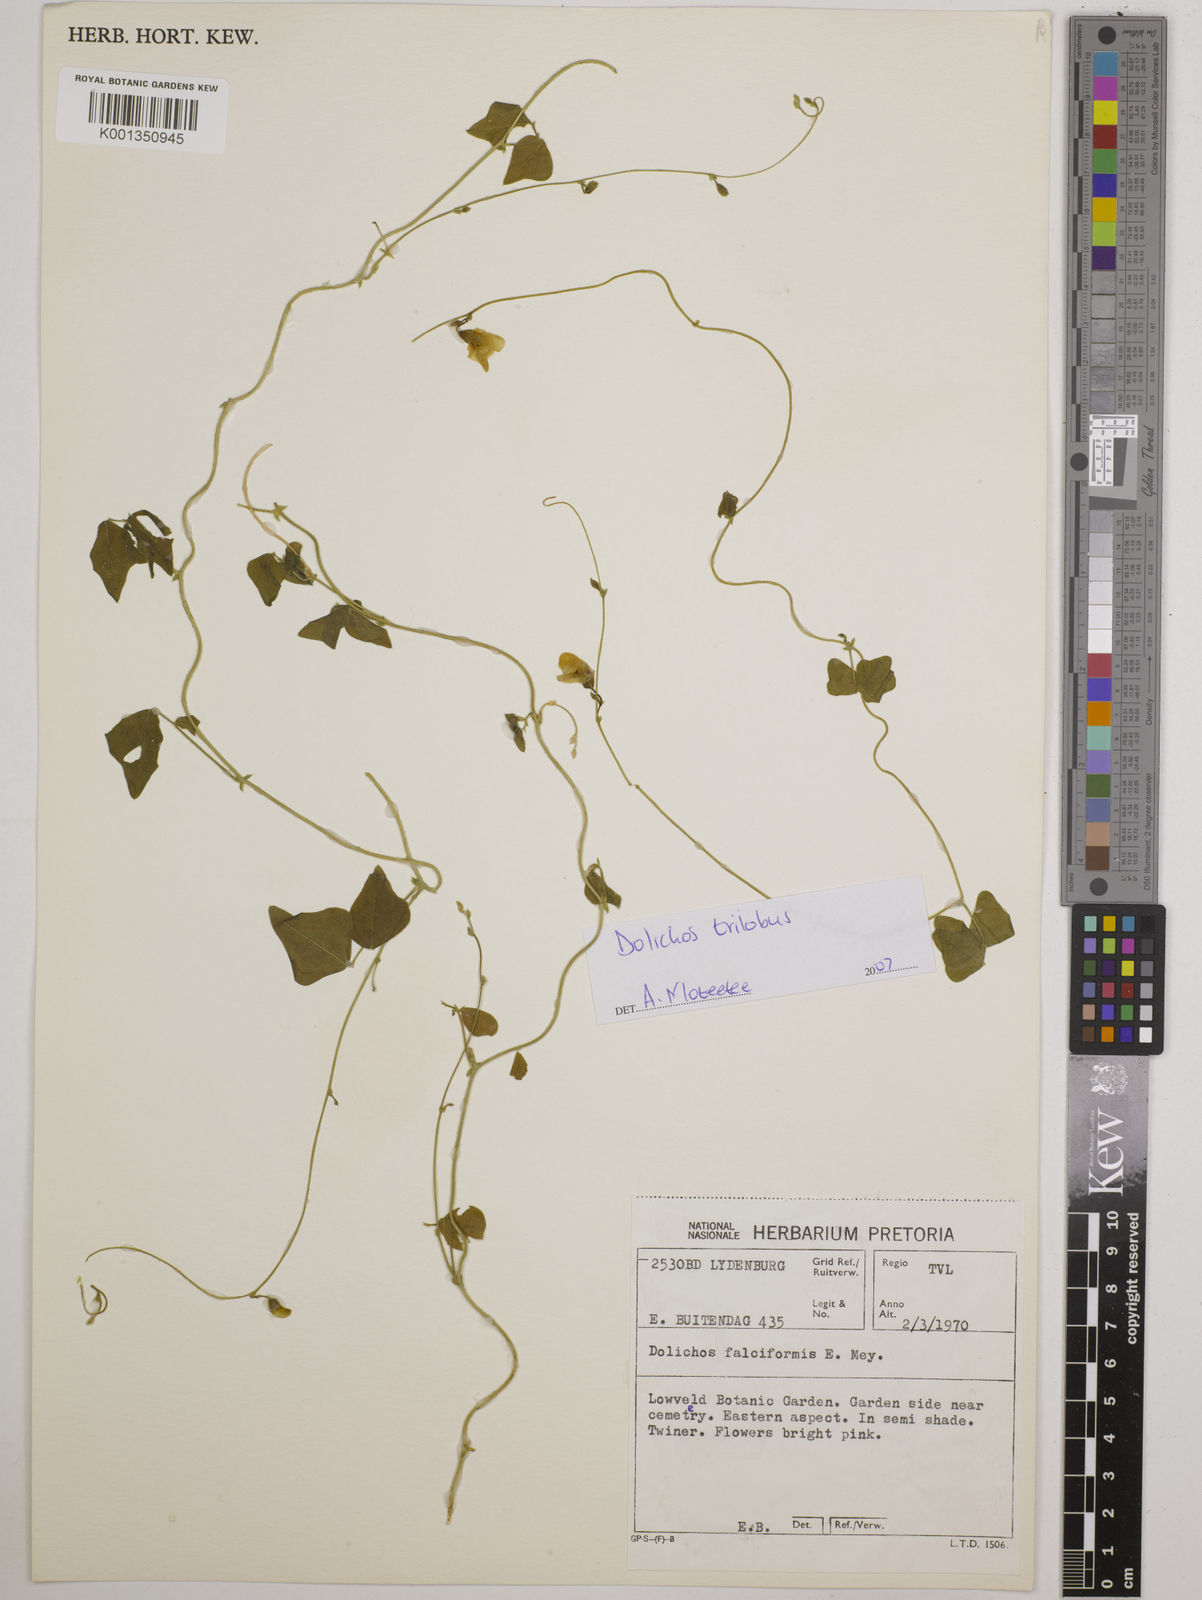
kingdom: Plantae
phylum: Tracheophyta
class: Magnoliopsida
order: Fabales
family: Fabaceae
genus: Dolichos
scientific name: Dolichos
